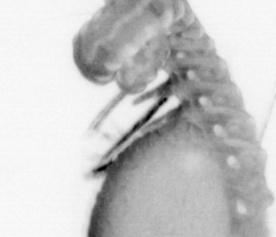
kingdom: Animalia
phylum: Annelida
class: Polychaeta
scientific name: Polychaeta
